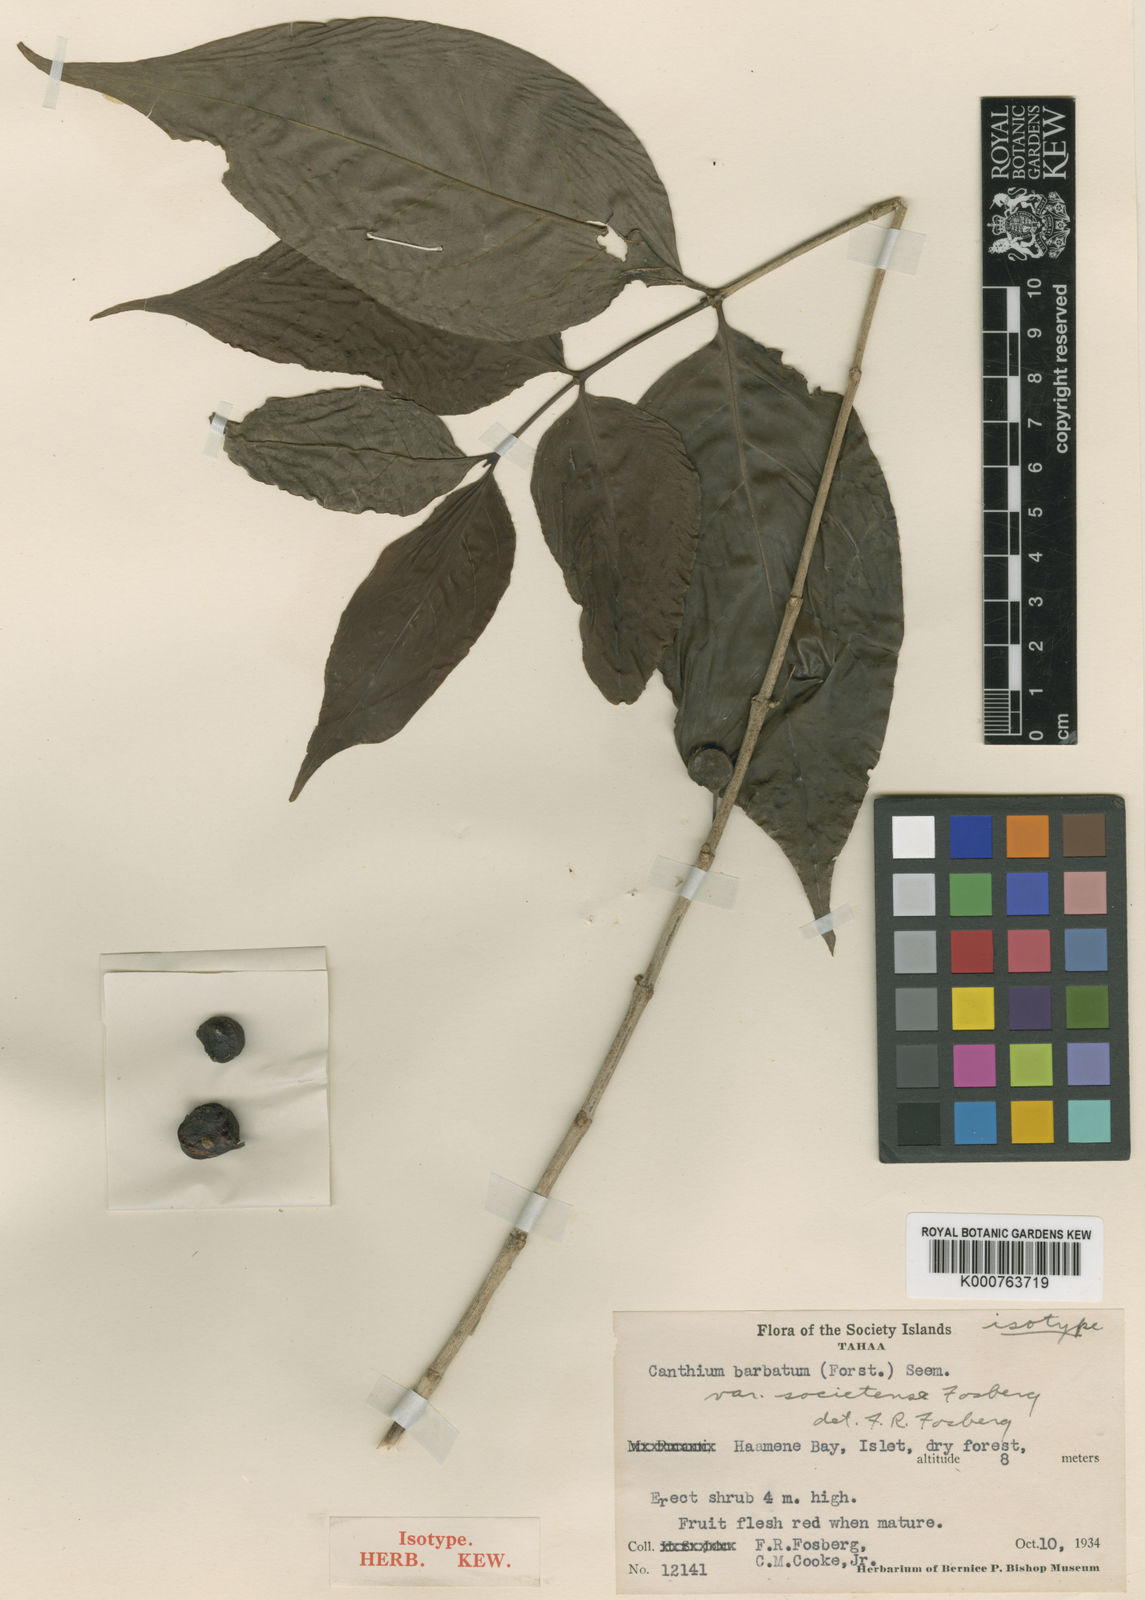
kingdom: Plantae
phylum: Tracheophyta
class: Magnoliopsida
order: Gentianales
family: Rubiaceae
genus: Cyclophyllum
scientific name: Cyclophyllum
